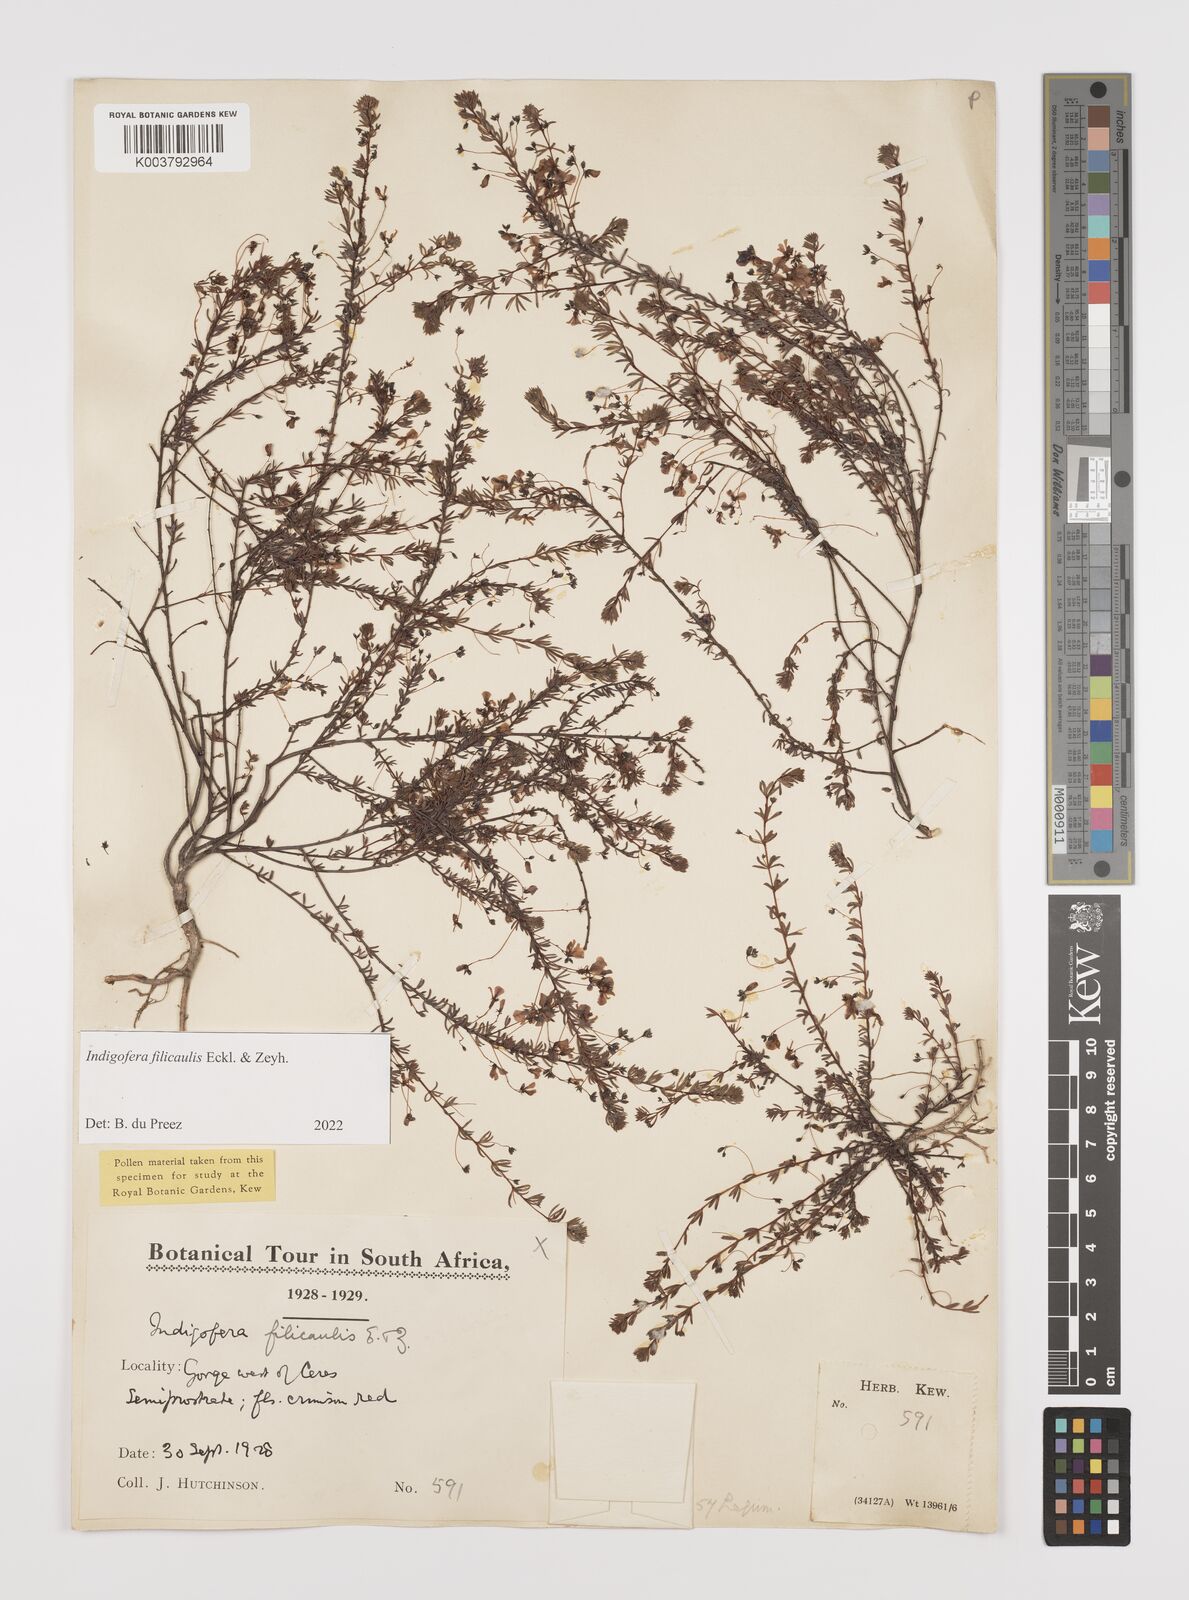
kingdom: Plantae
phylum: Tracheophyta
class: Magnoliopsida
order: Fabales
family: Fabaceae
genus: Indigofera
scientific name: Indigofera filicaulis
